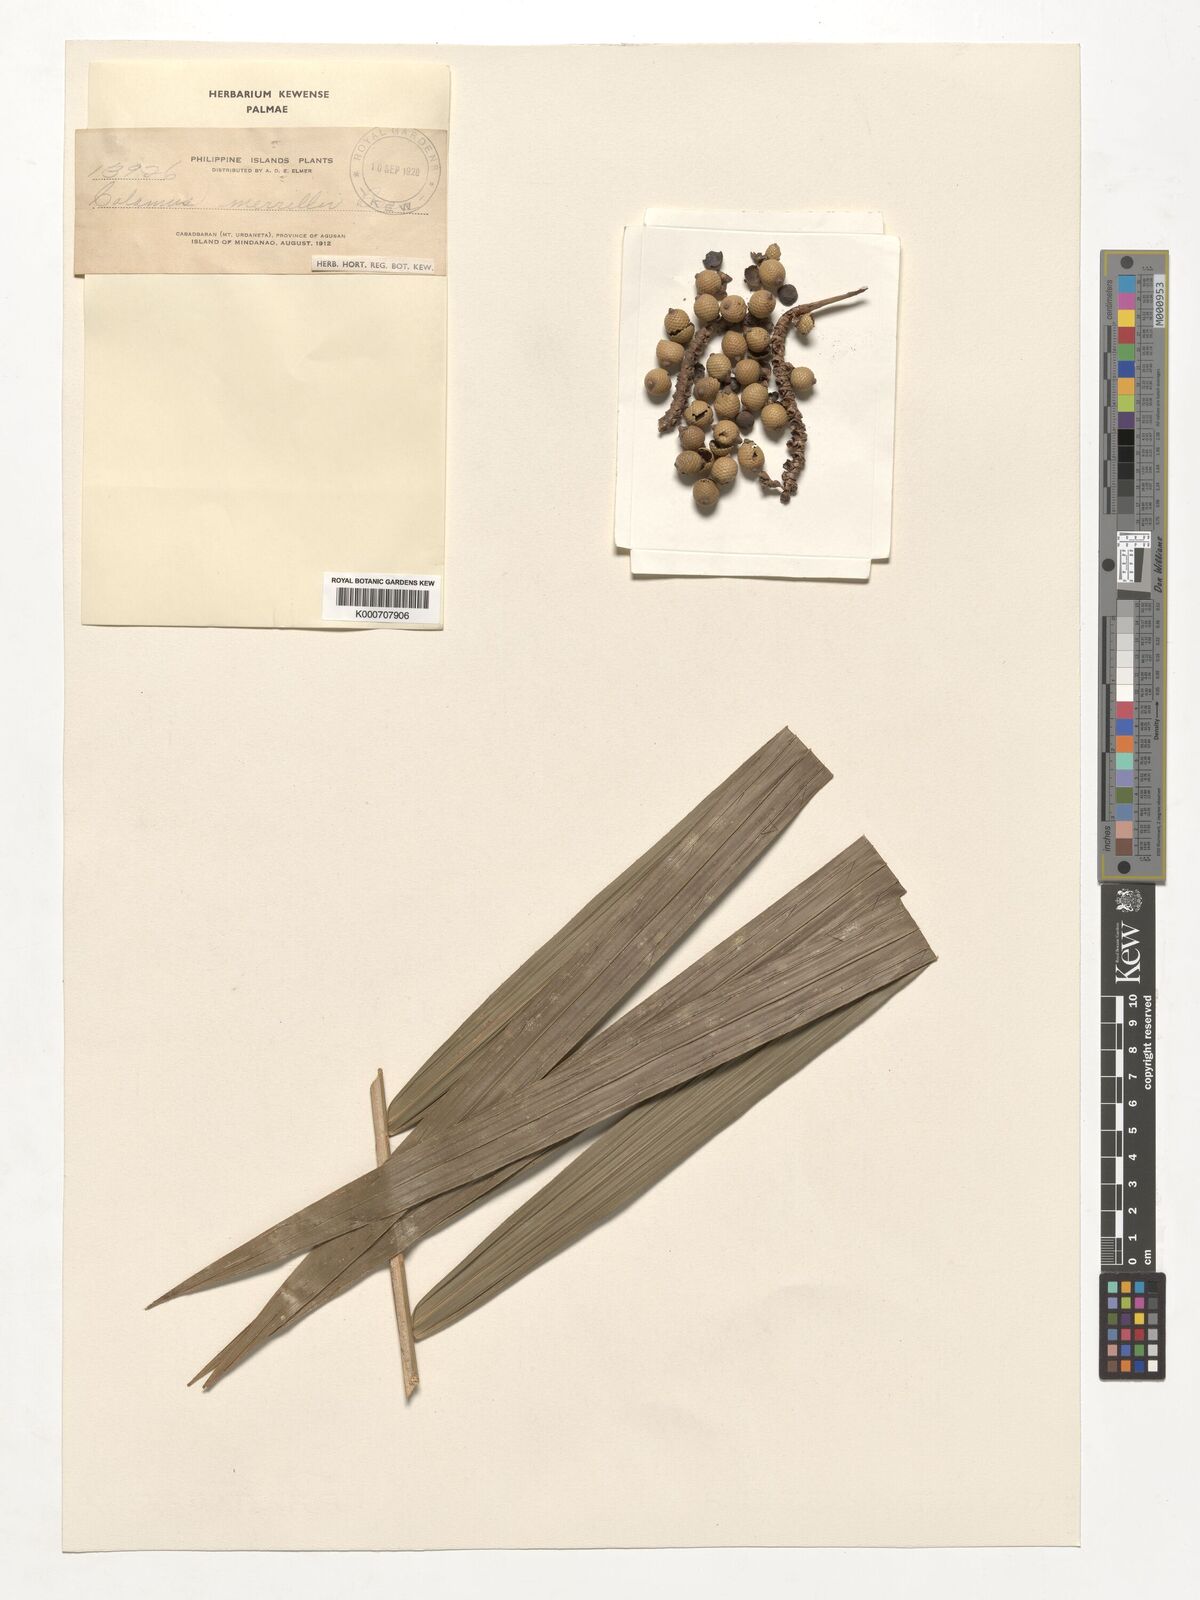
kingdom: Plantae
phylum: Tracheophyta
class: Liliopsida
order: Arecales
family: Arecaceae
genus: Calamus
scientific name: Calamus zollingeri
